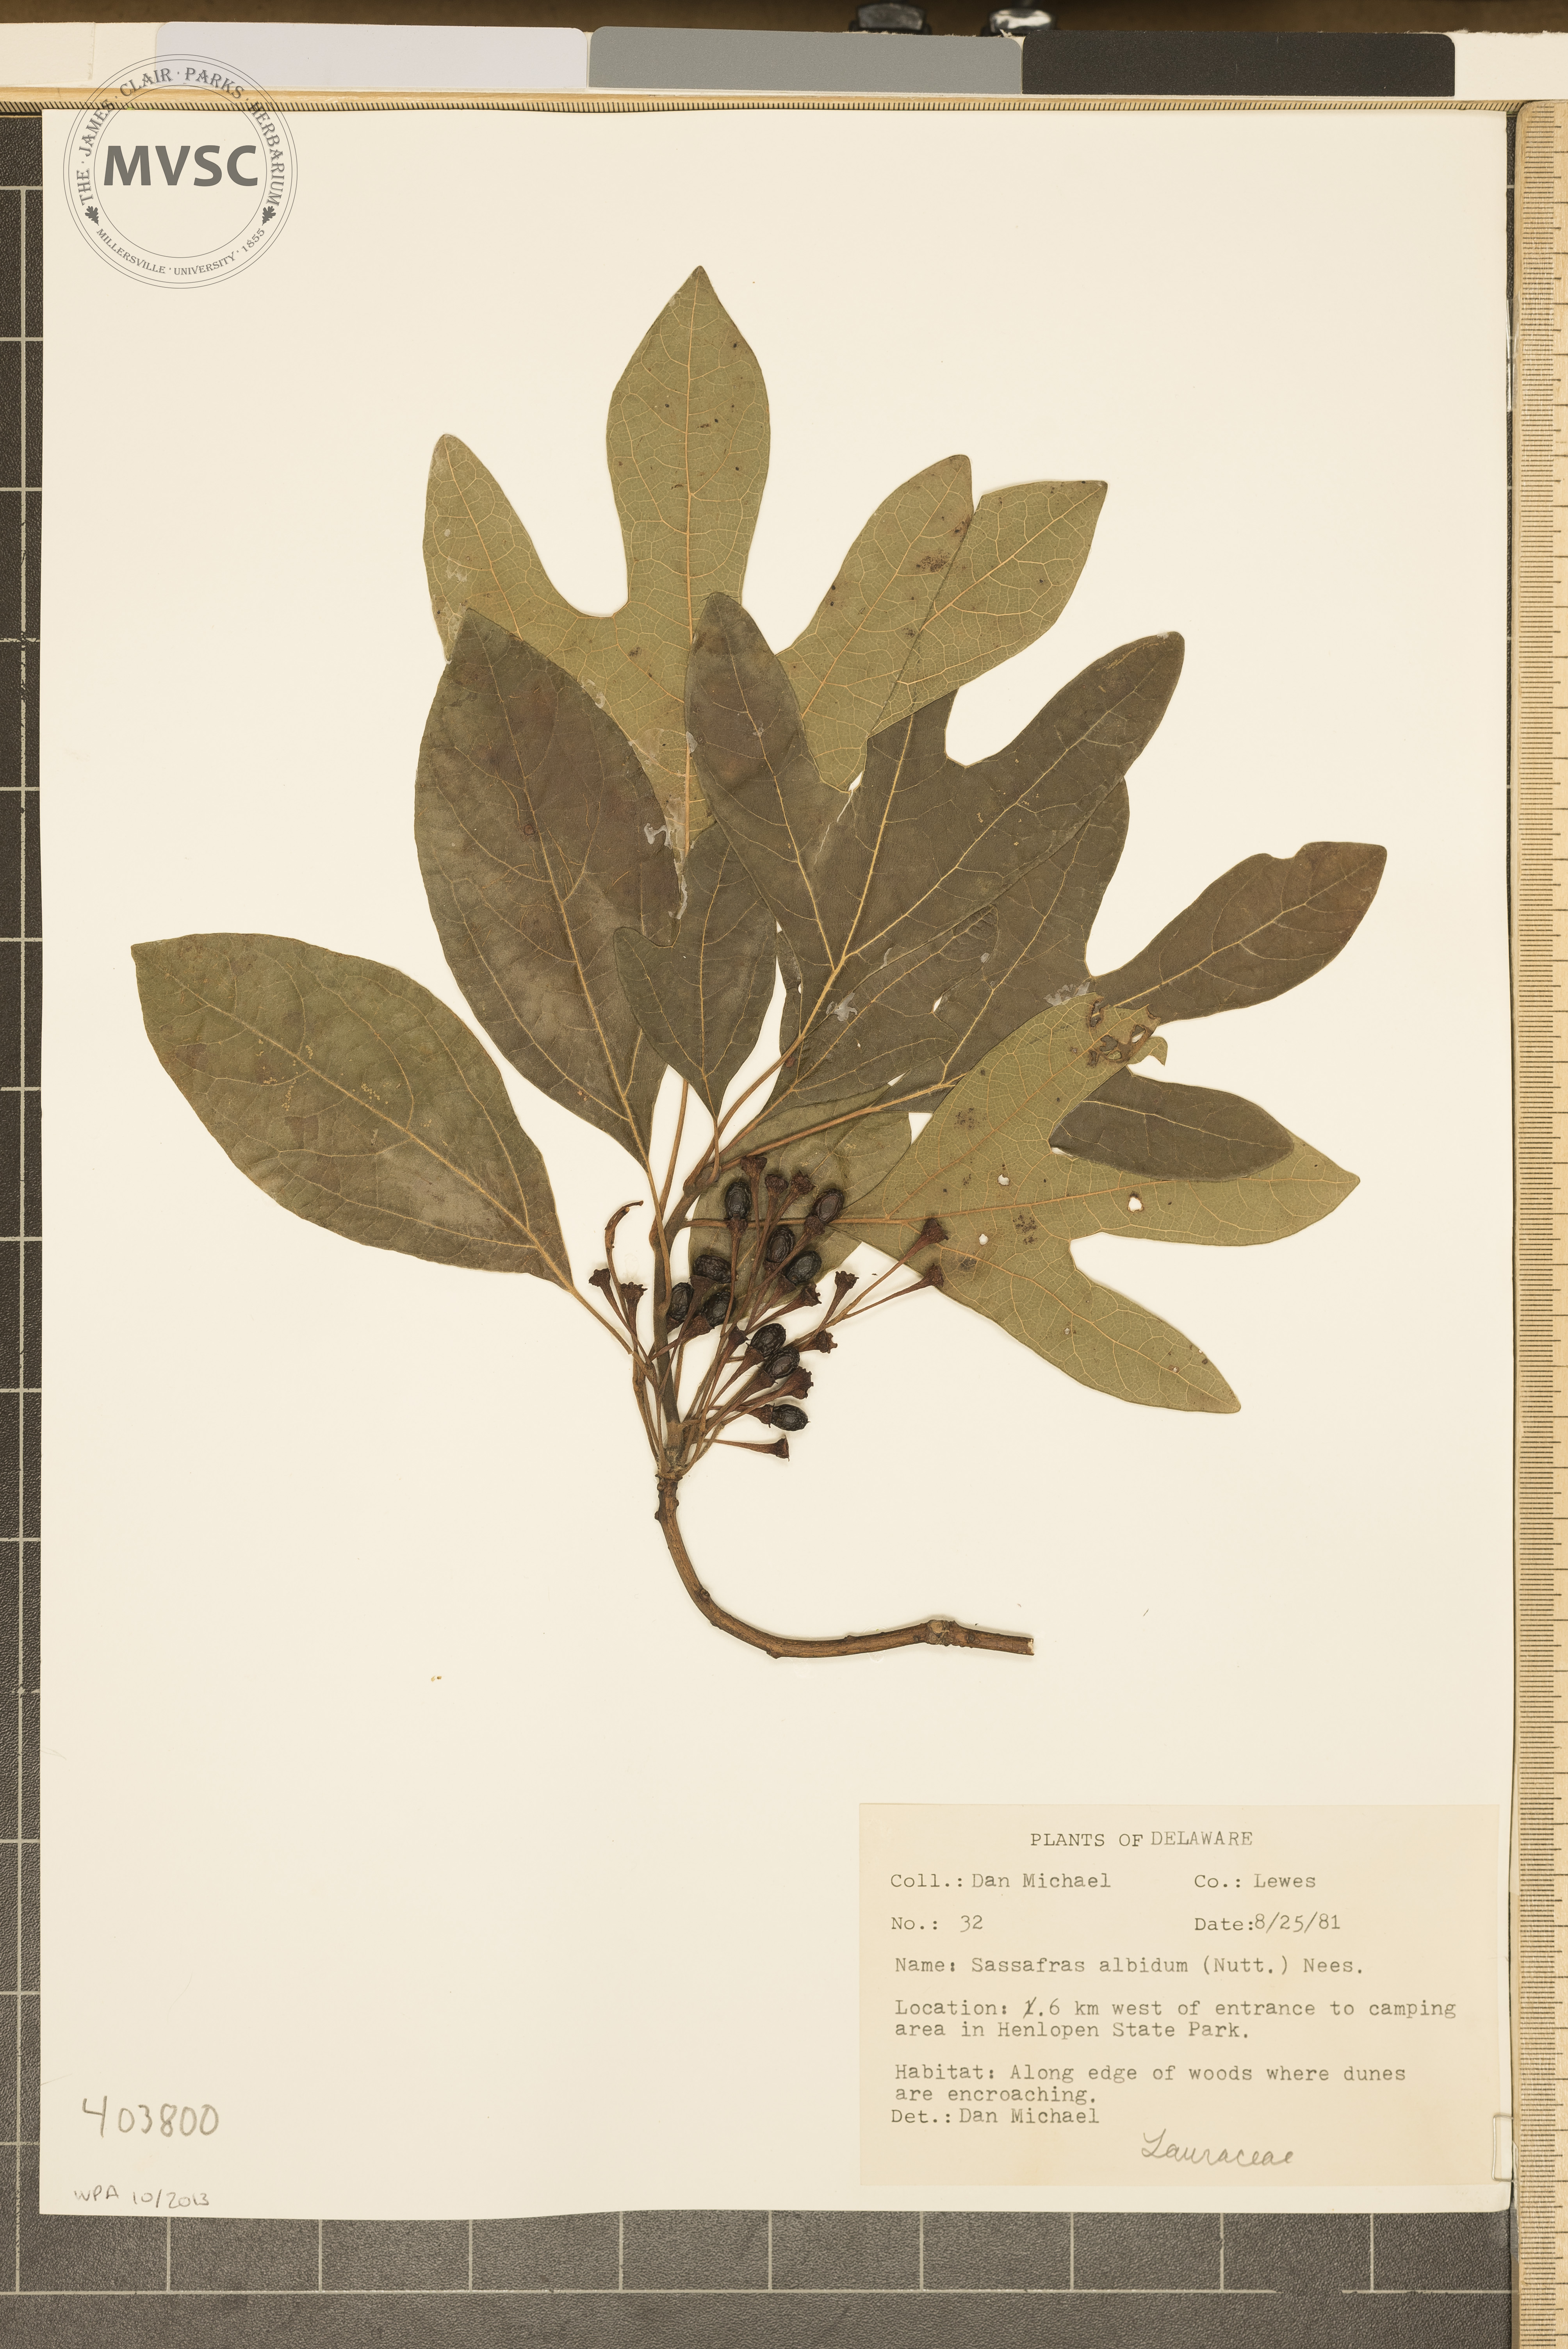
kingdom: Plantae
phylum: Tracheophyta
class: Magnoliopsida
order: Laurales
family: Lauraceae
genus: Sassafras
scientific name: Sassafras albidum
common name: Sassafras
